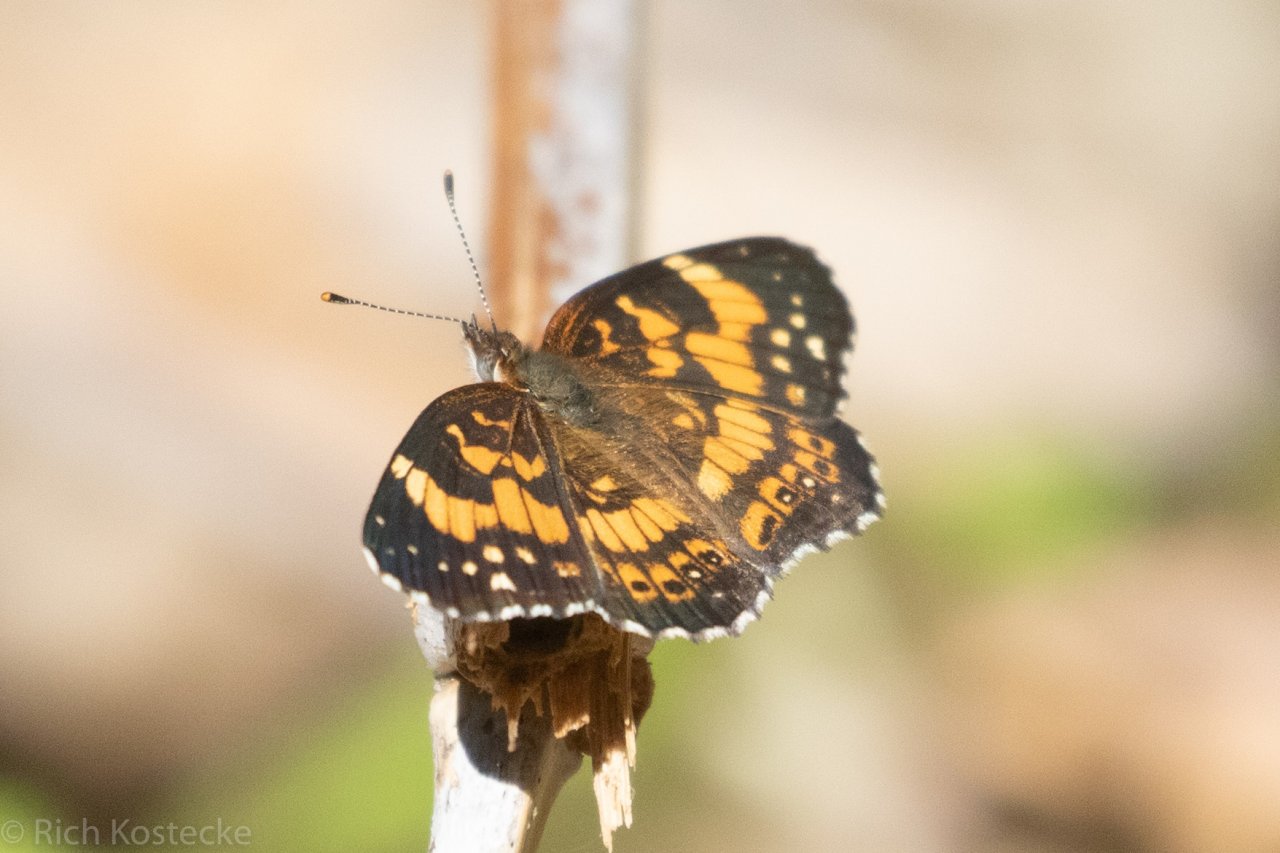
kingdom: Animalia
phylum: Arthropoda
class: Insecta
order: Lepidoptera
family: Nymphalidae
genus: Chlosyne
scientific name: Chlosyne nycteis
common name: Silvery Checkerspot
